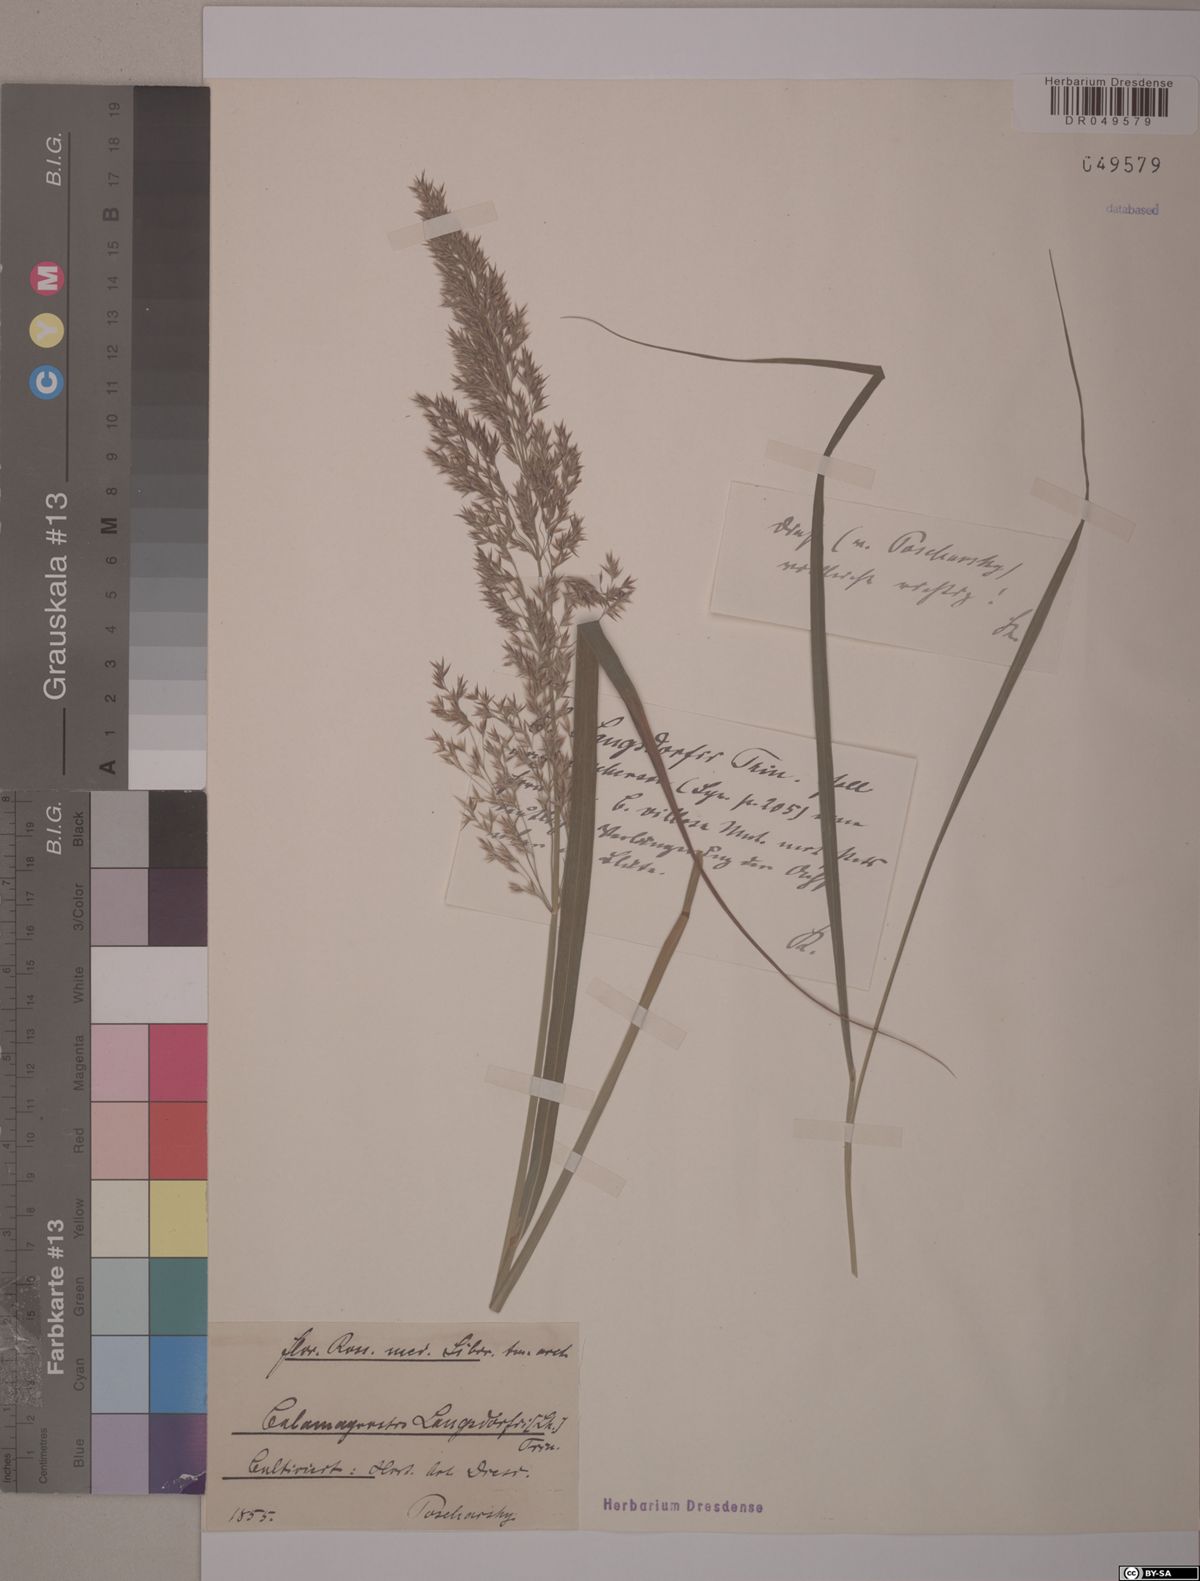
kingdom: Plantae
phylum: Tracheophyta
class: Liliopsida
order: Poales
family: Poaceae
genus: Calamagrostis
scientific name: Calamagrostis purpurea
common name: Scandinavian small-reed
